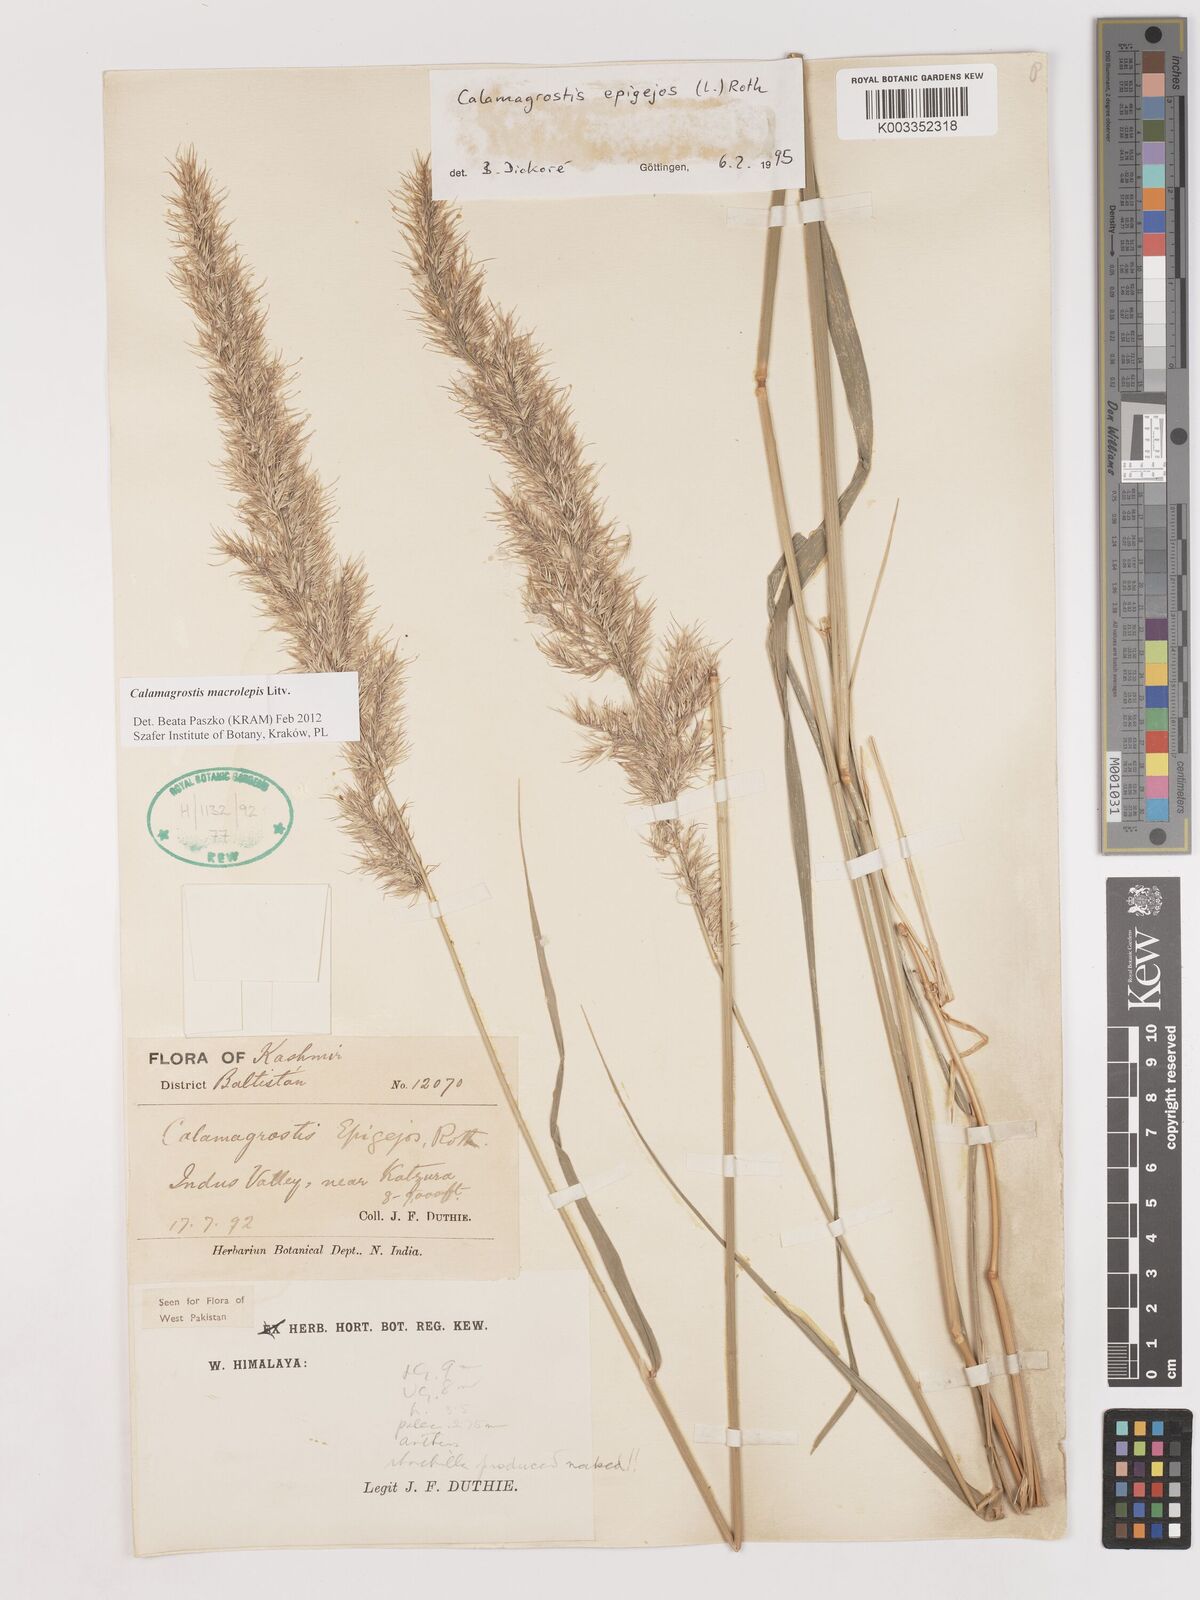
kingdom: Plantae
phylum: Tracheophyta
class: Liliopsida
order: Poales
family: Poaceae
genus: Calamagrostis
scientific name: Calamagrostis epigejos
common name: Wood small-reed
